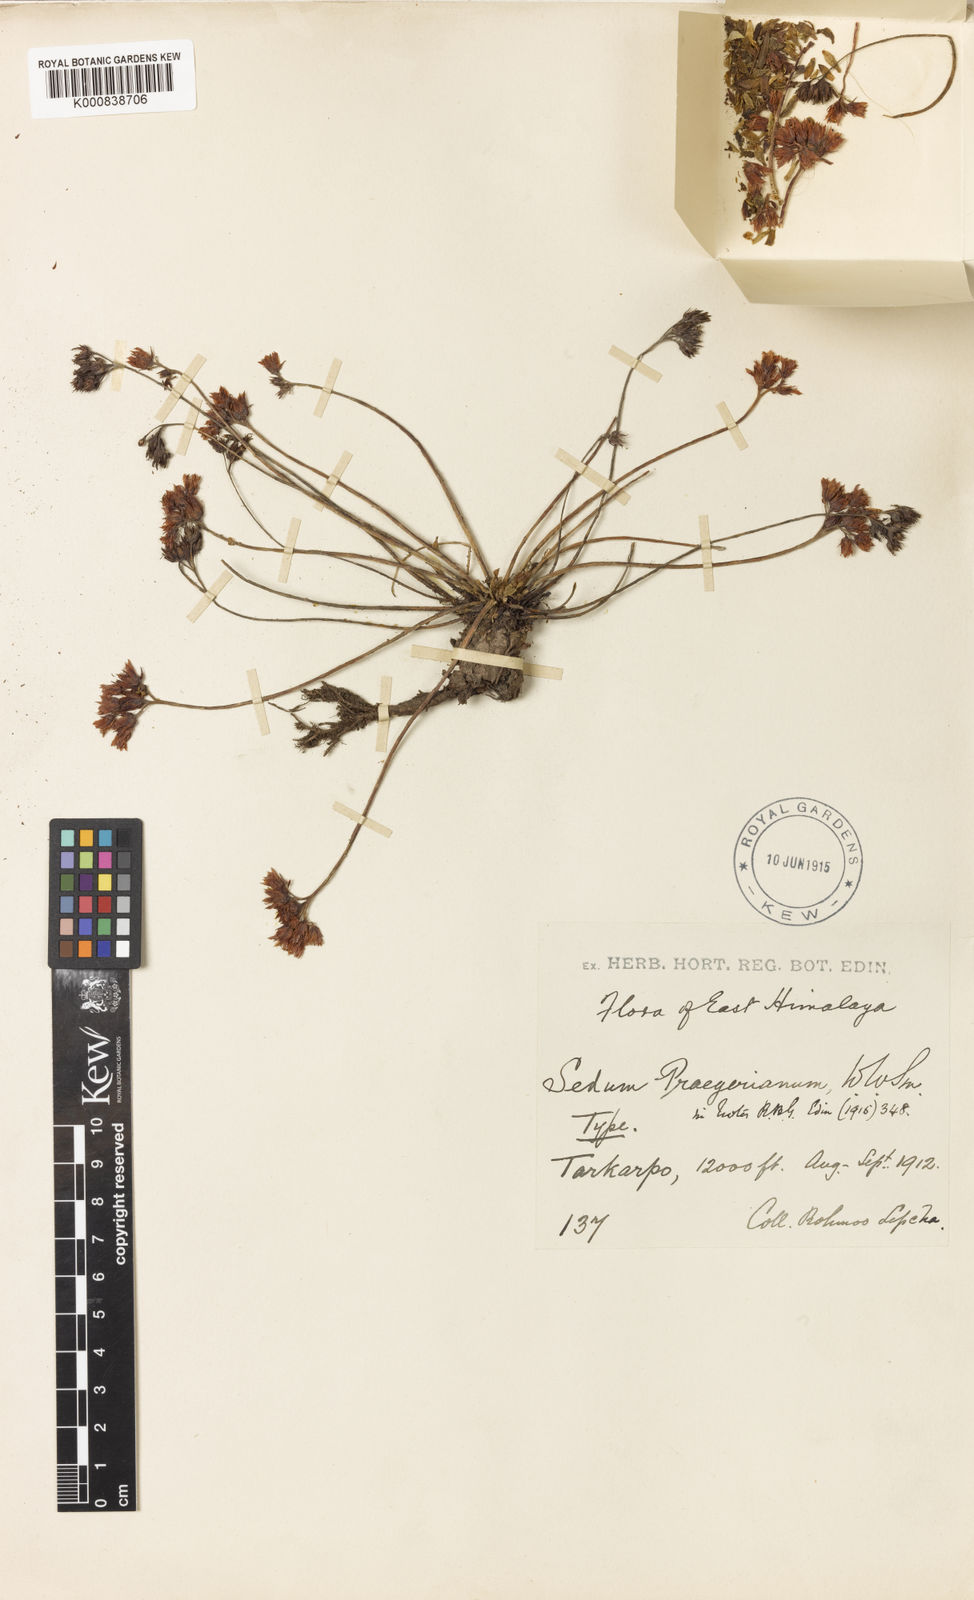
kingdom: Plantae
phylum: Tracheophyta
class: Magnoliopsida
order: Saxifragales
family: Crassulaceae
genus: Rhodiola
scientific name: Rhodiola hobsonii
